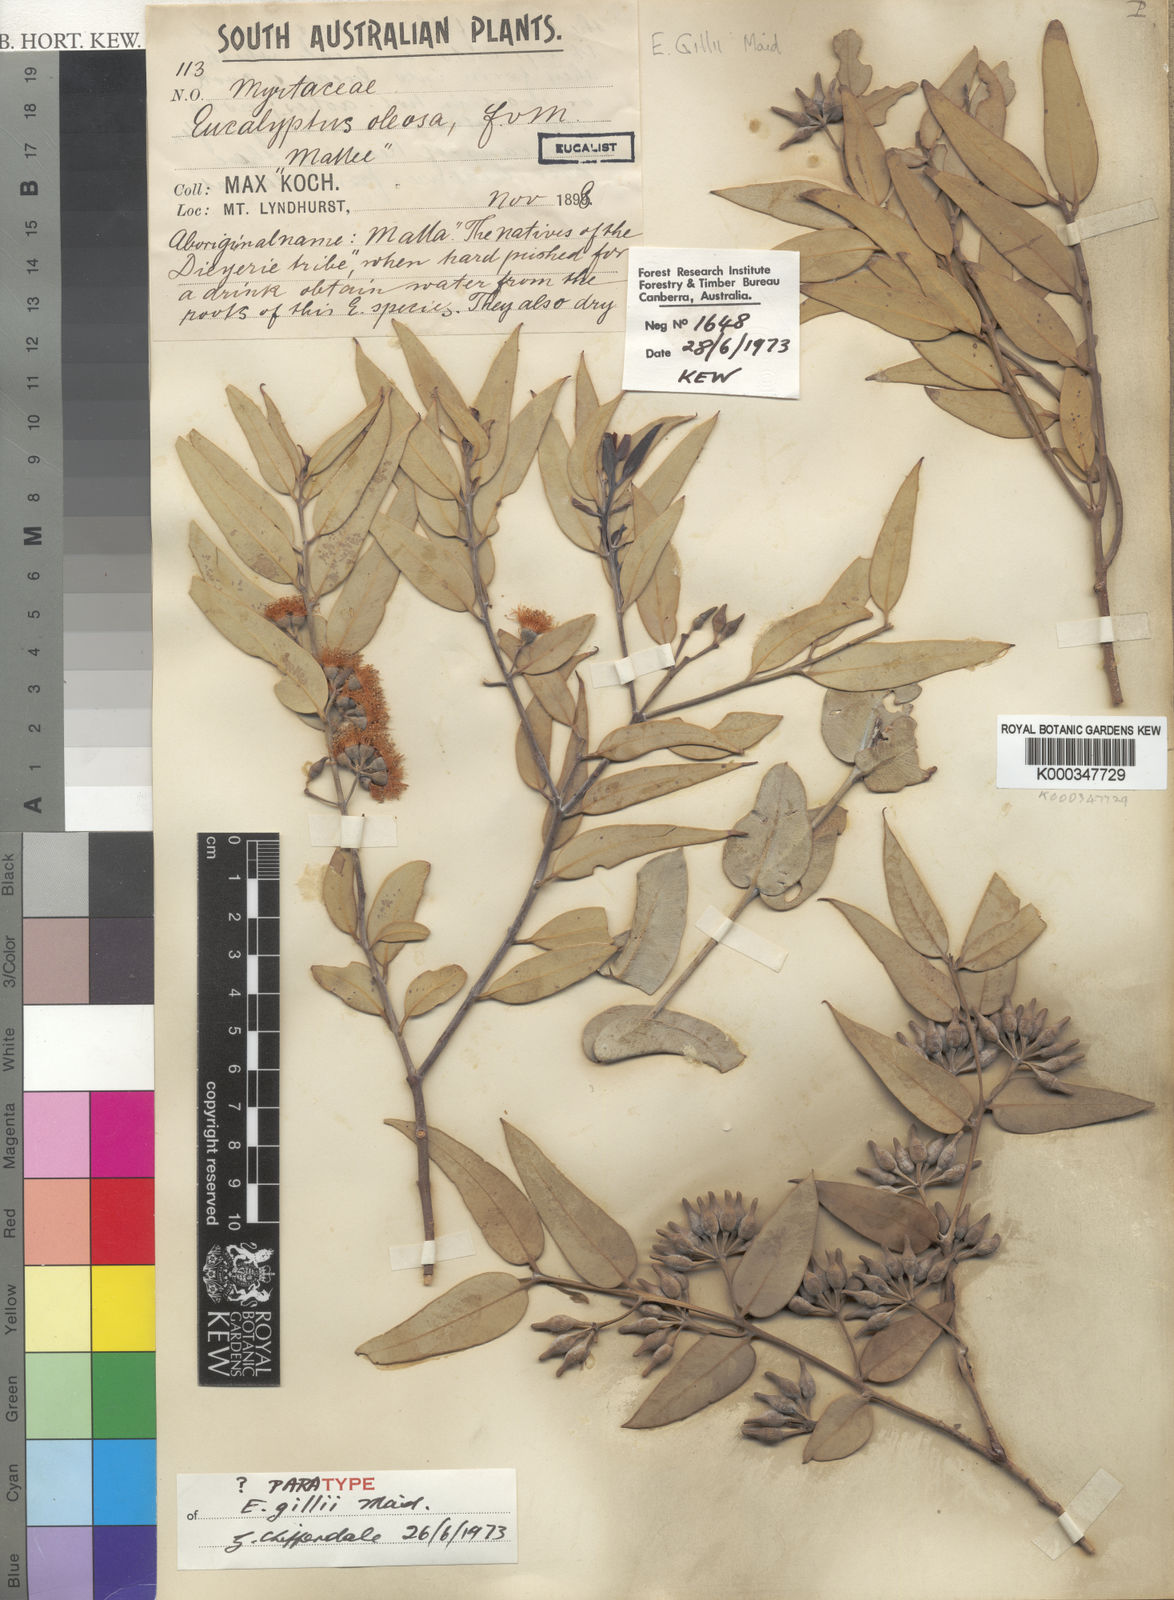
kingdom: Plantae
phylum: Tracheophyta
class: Magnoliopsida
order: Myrtales
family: Myrtaceae
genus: Eucalyptus
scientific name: Eucalyptus gillii
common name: Broken hill mallee
